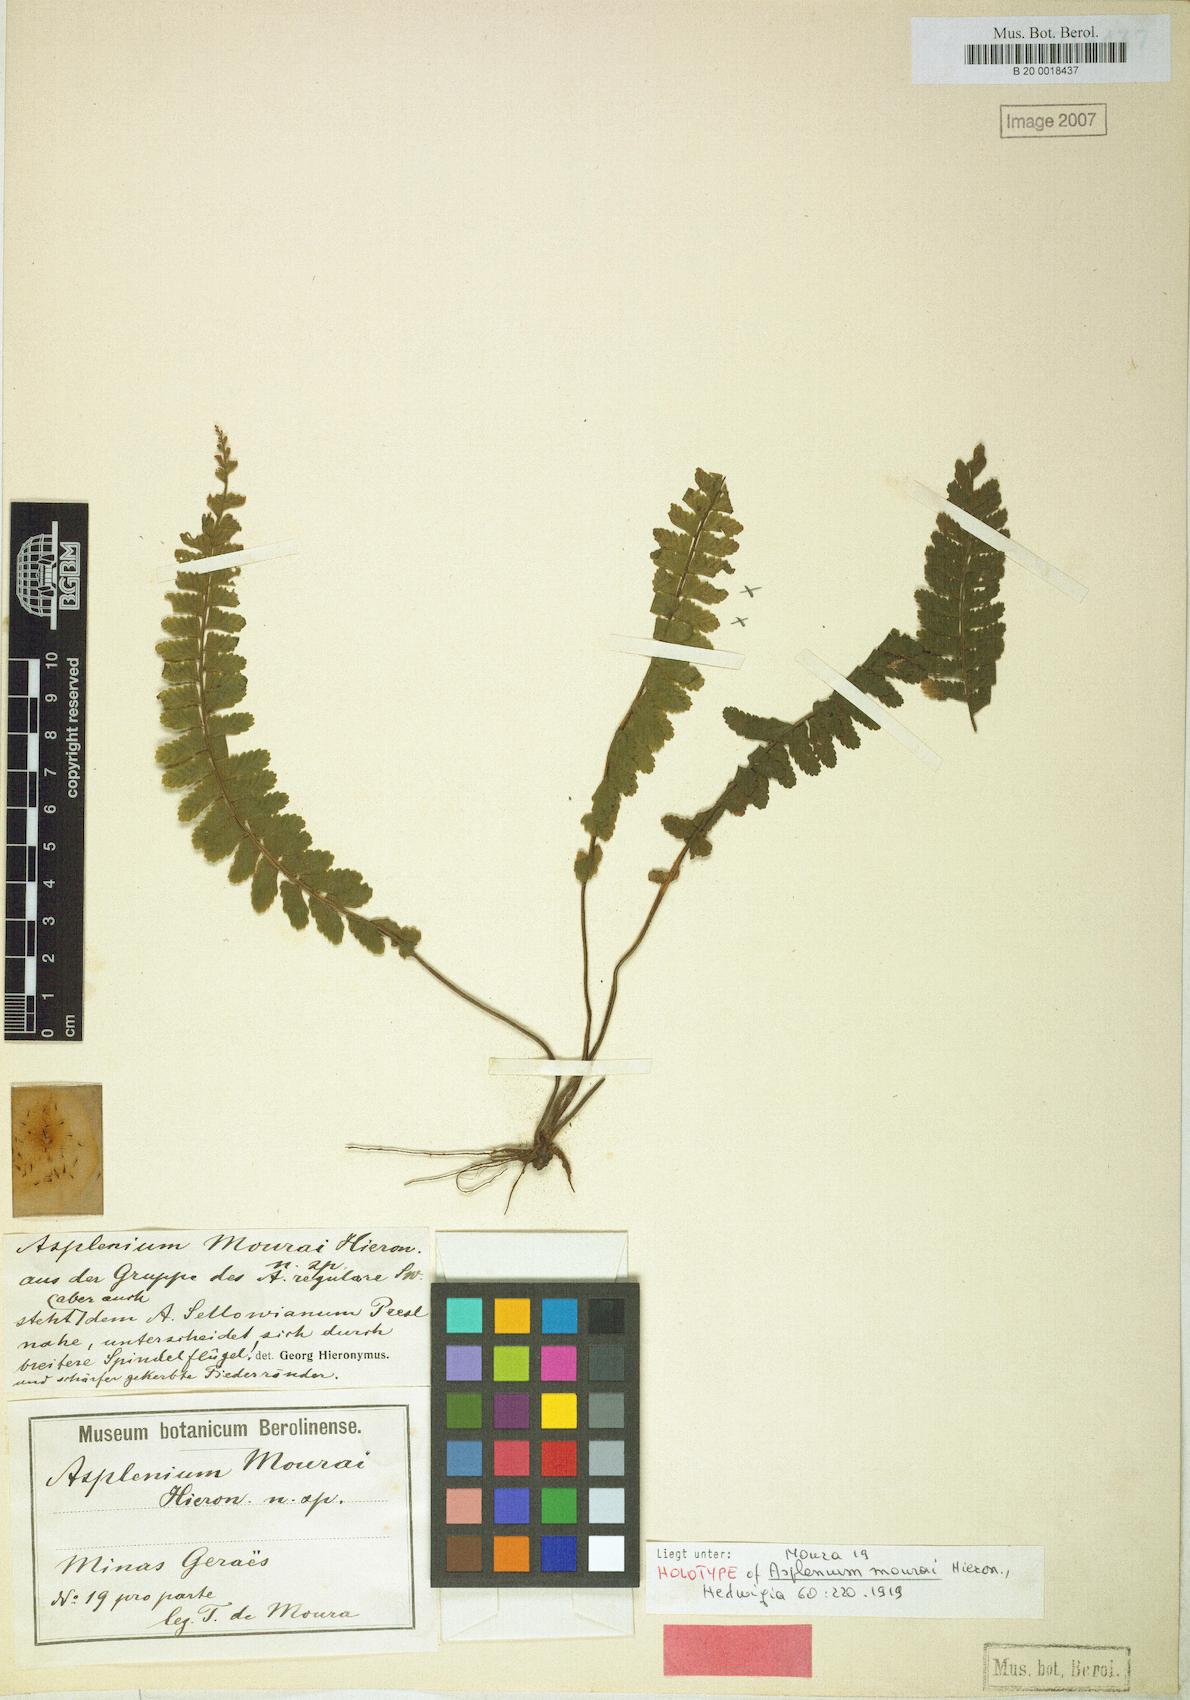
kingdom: Plantae
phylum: Tracheophyta
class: Polypodiopsida
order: Polypodiales
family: Aspleniaceae
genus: Asplenium
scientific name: Asplenium mourai
